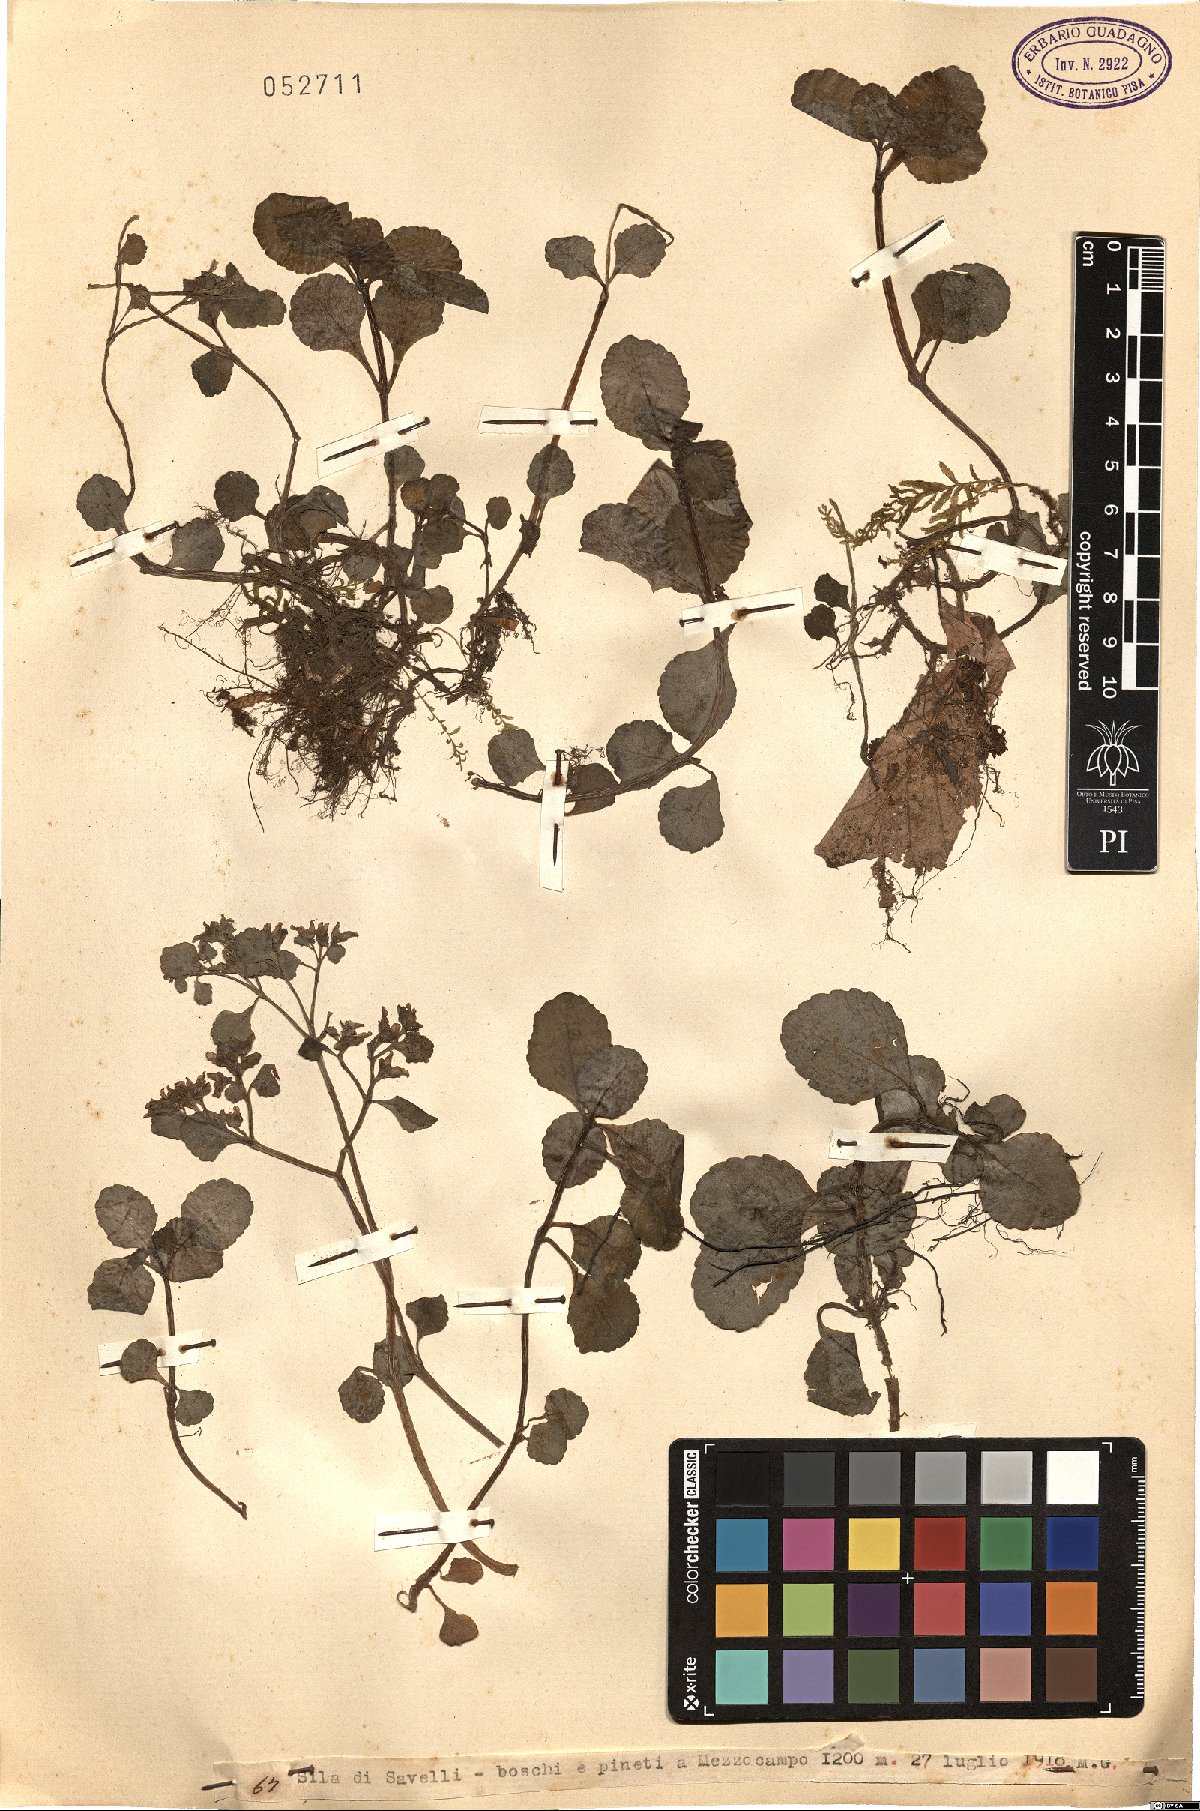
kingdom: Plantae
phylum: Tracheophyta
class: Magnoliopsida
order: Saxifragales
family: Saxifragaceae
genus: Chrysosplenium
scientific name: Chrysosplenium
